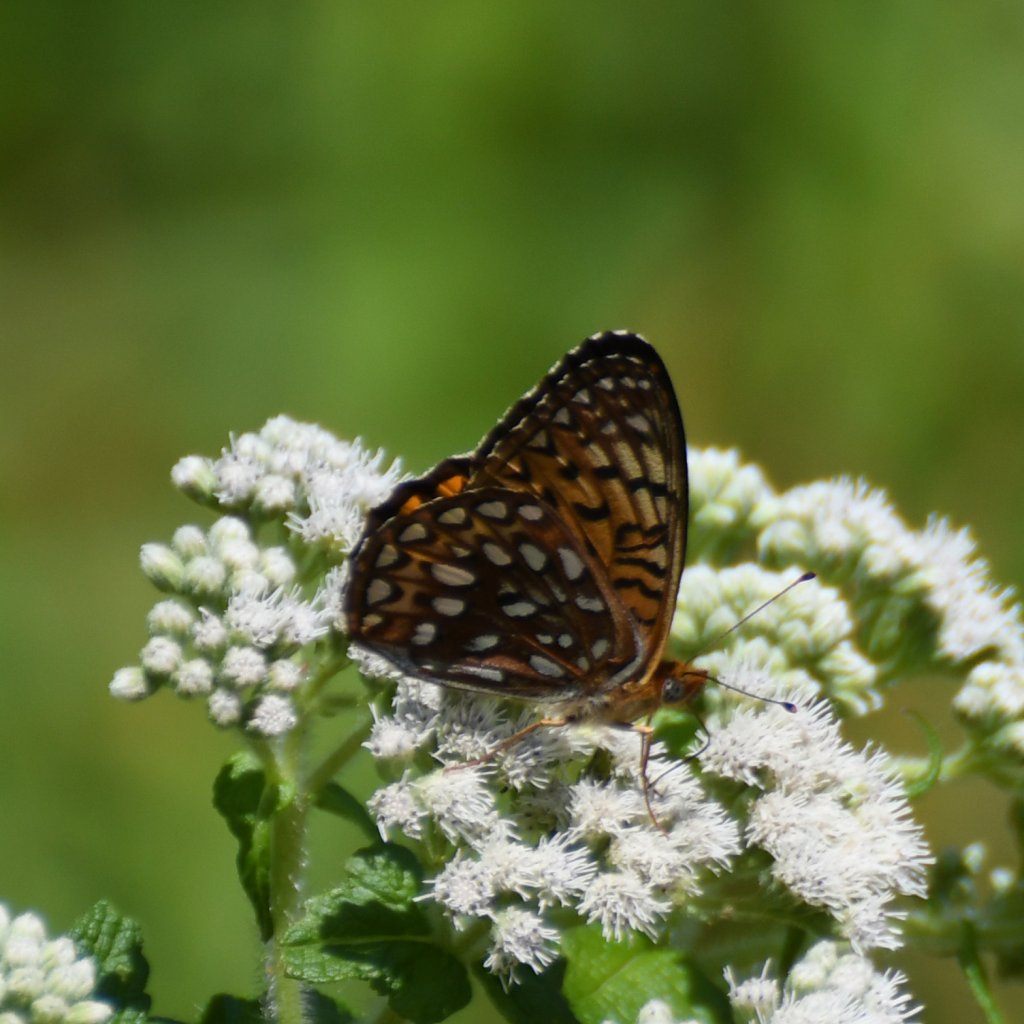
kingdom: Animalia
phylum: Arthropoda
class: Insecta
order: Lepidoptera
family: Nymphalidae
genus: Speyeria
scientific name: Speyeria atlantis
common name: Atlantis Fritillary
